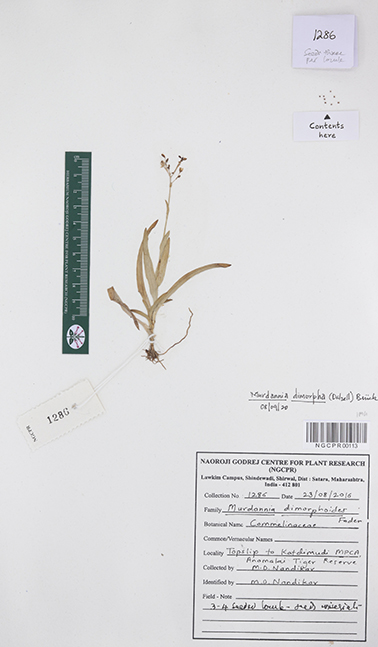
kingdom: Plantae
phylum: Tracheophyta
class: Liliopsida
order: Commelinales
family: Commelinaceae
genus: Murdannia
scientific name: Murdannia dimorpha
